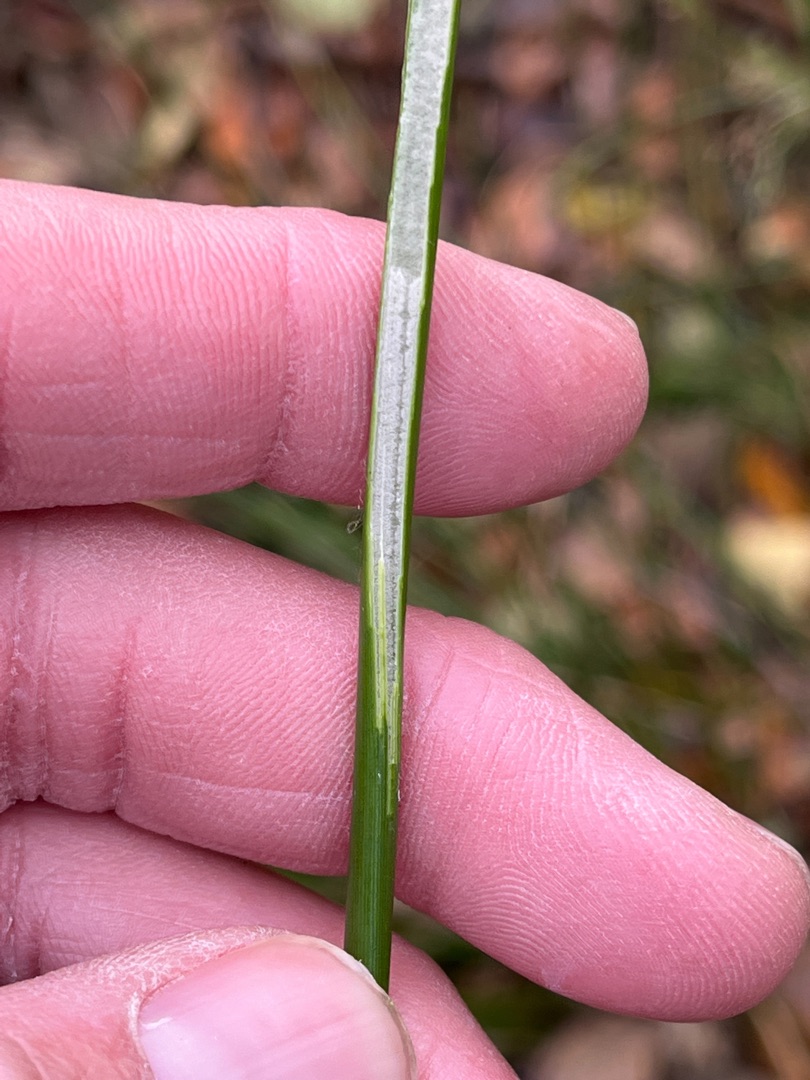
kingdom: Plantae
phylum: Tracheophyta
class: Liliopsida
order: Poales
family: Juncaceae
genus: Juncus
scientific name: Juncus effusus
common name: Lyse-siv
